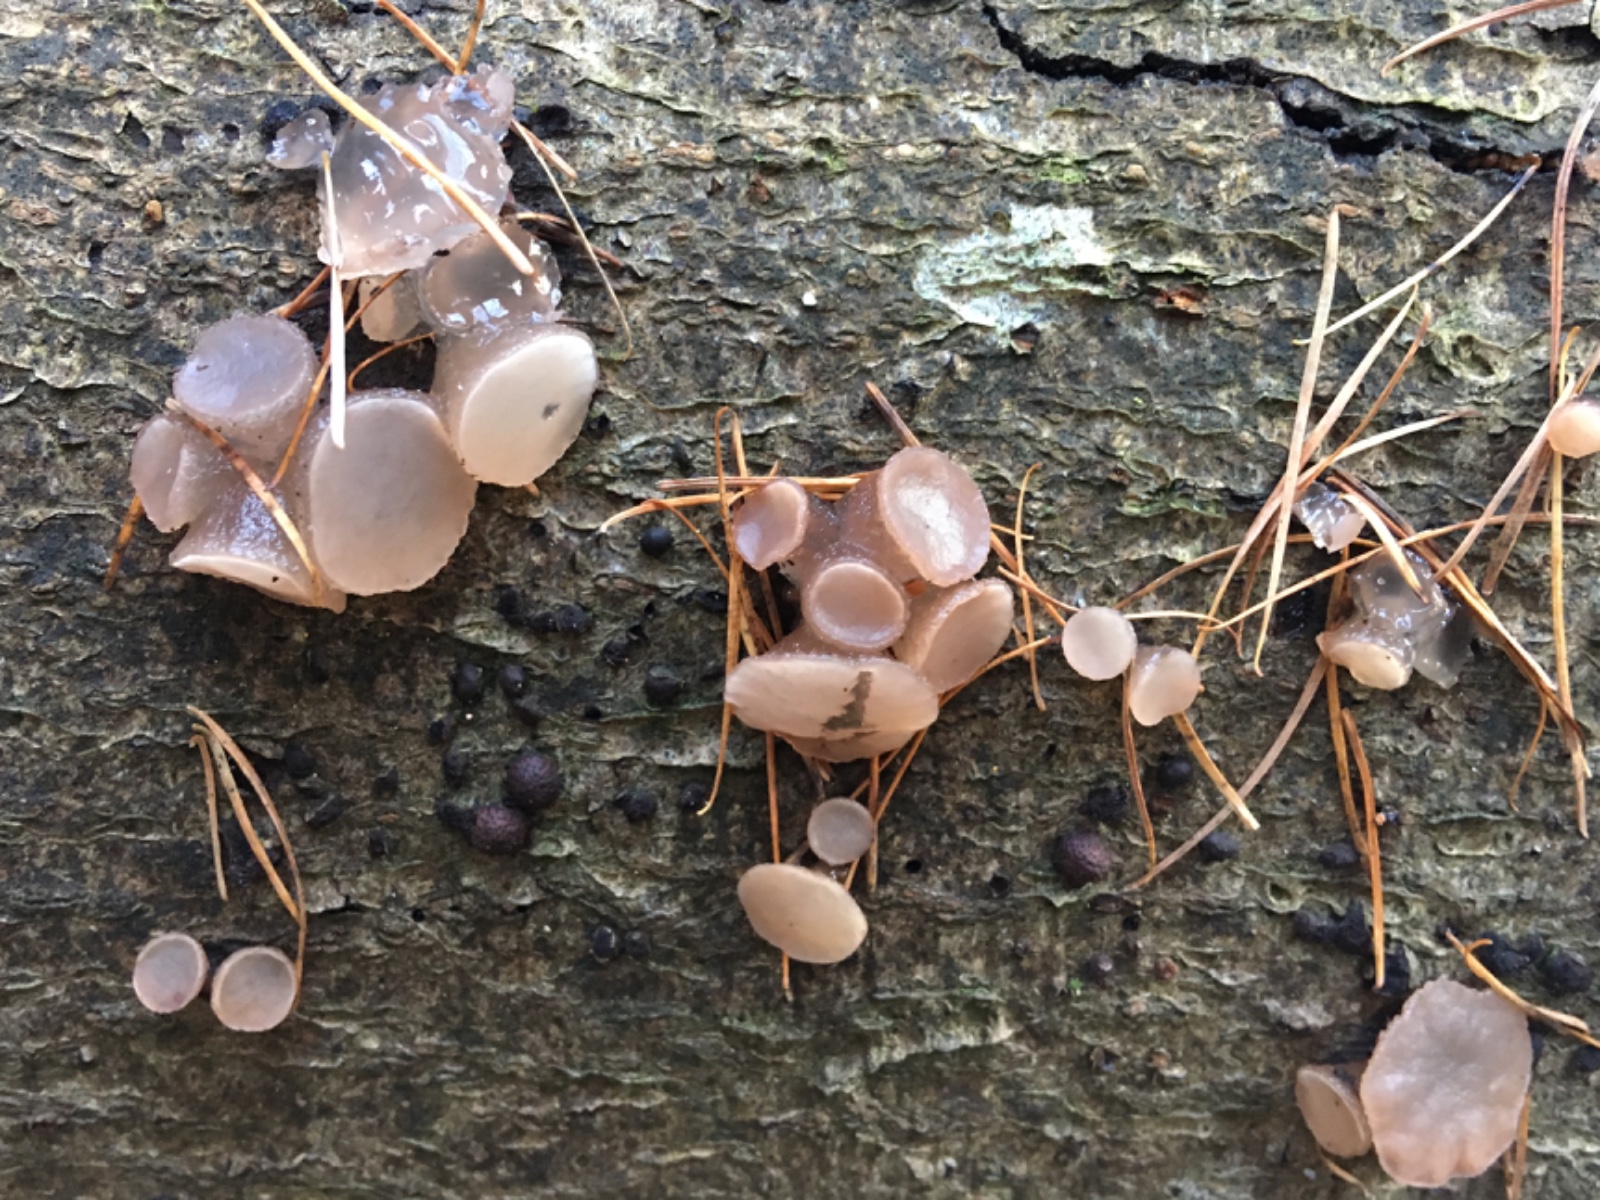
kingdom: Fungi
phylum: Ascomycota
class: Leotiomycetes
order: Helotiales
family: Gelatinodiscaceae
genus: Neobulgaria
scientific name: Neobulgaria pura
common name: bleg bævreskive
